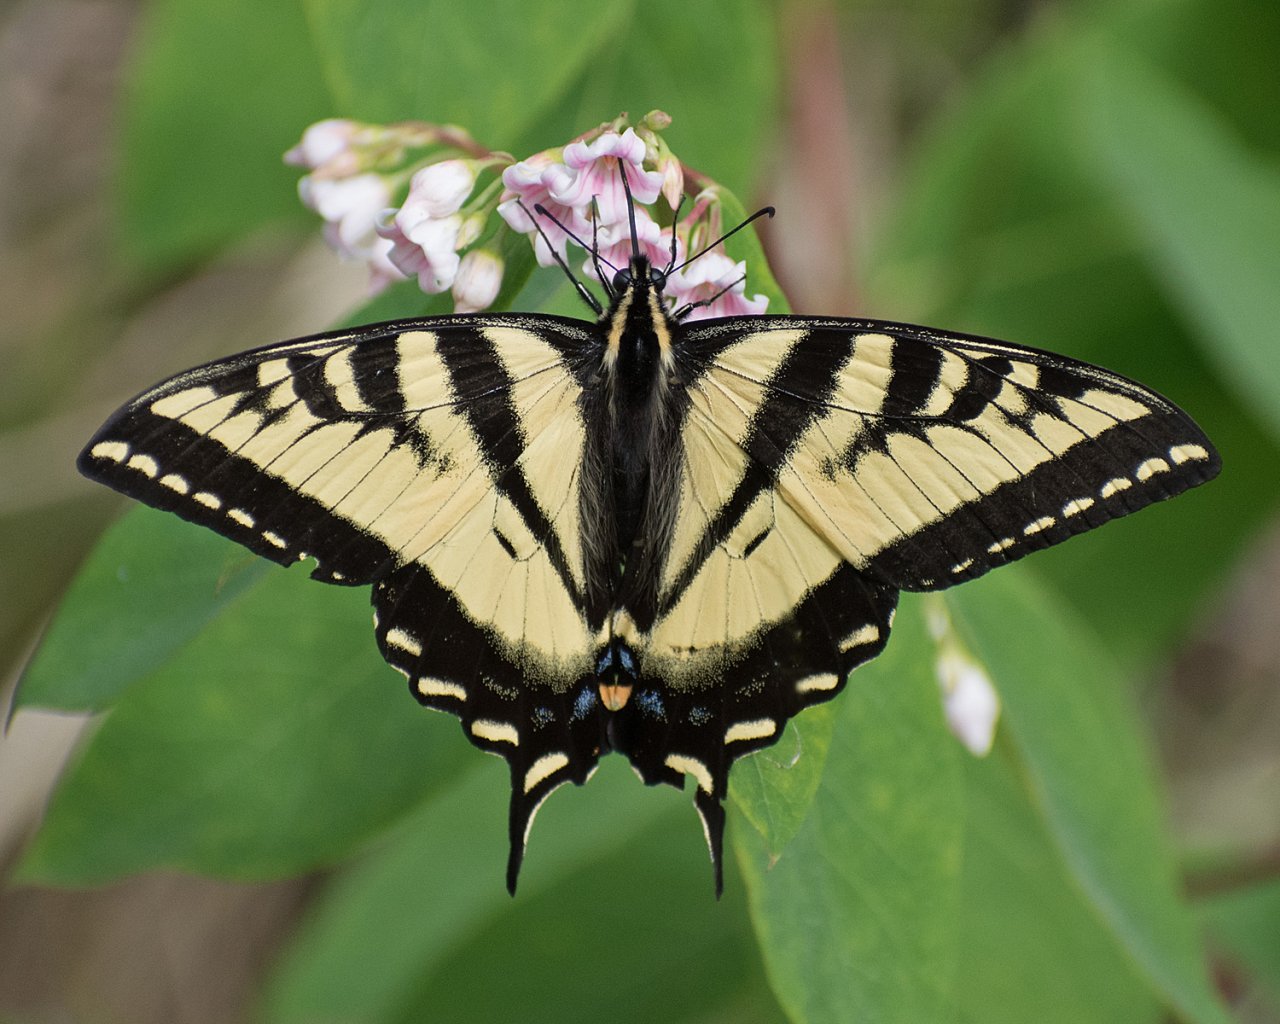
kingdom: Animalia
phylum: Arthropoda
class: Insecta
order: Lepidoptera
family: Papilionidae
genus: Pterourus
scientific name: Pterourus rutulus
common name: Western Tiger Swallowtail
